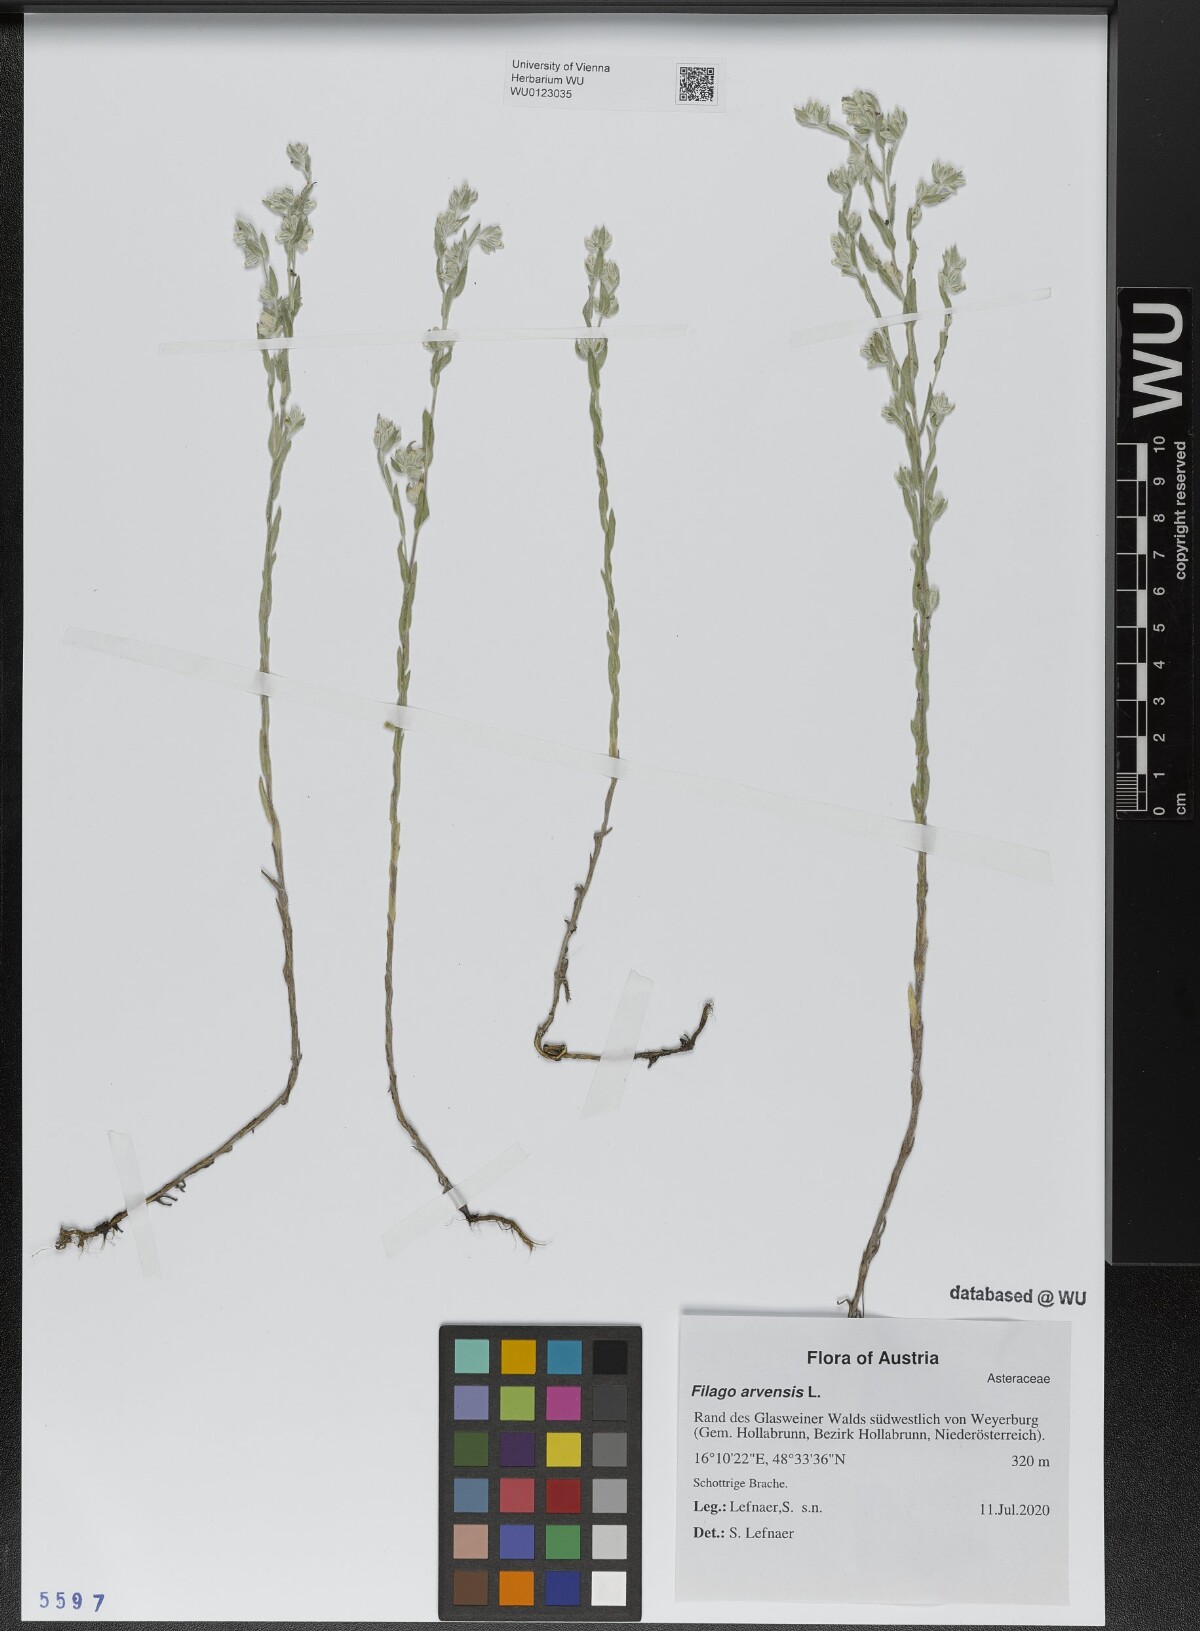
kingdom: Plantae
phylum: Tracheophyta
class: Magnoliopsida
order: Asterales
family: Asteraceae
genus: Filago
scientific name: Filago arvensis
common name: Field cudweed
